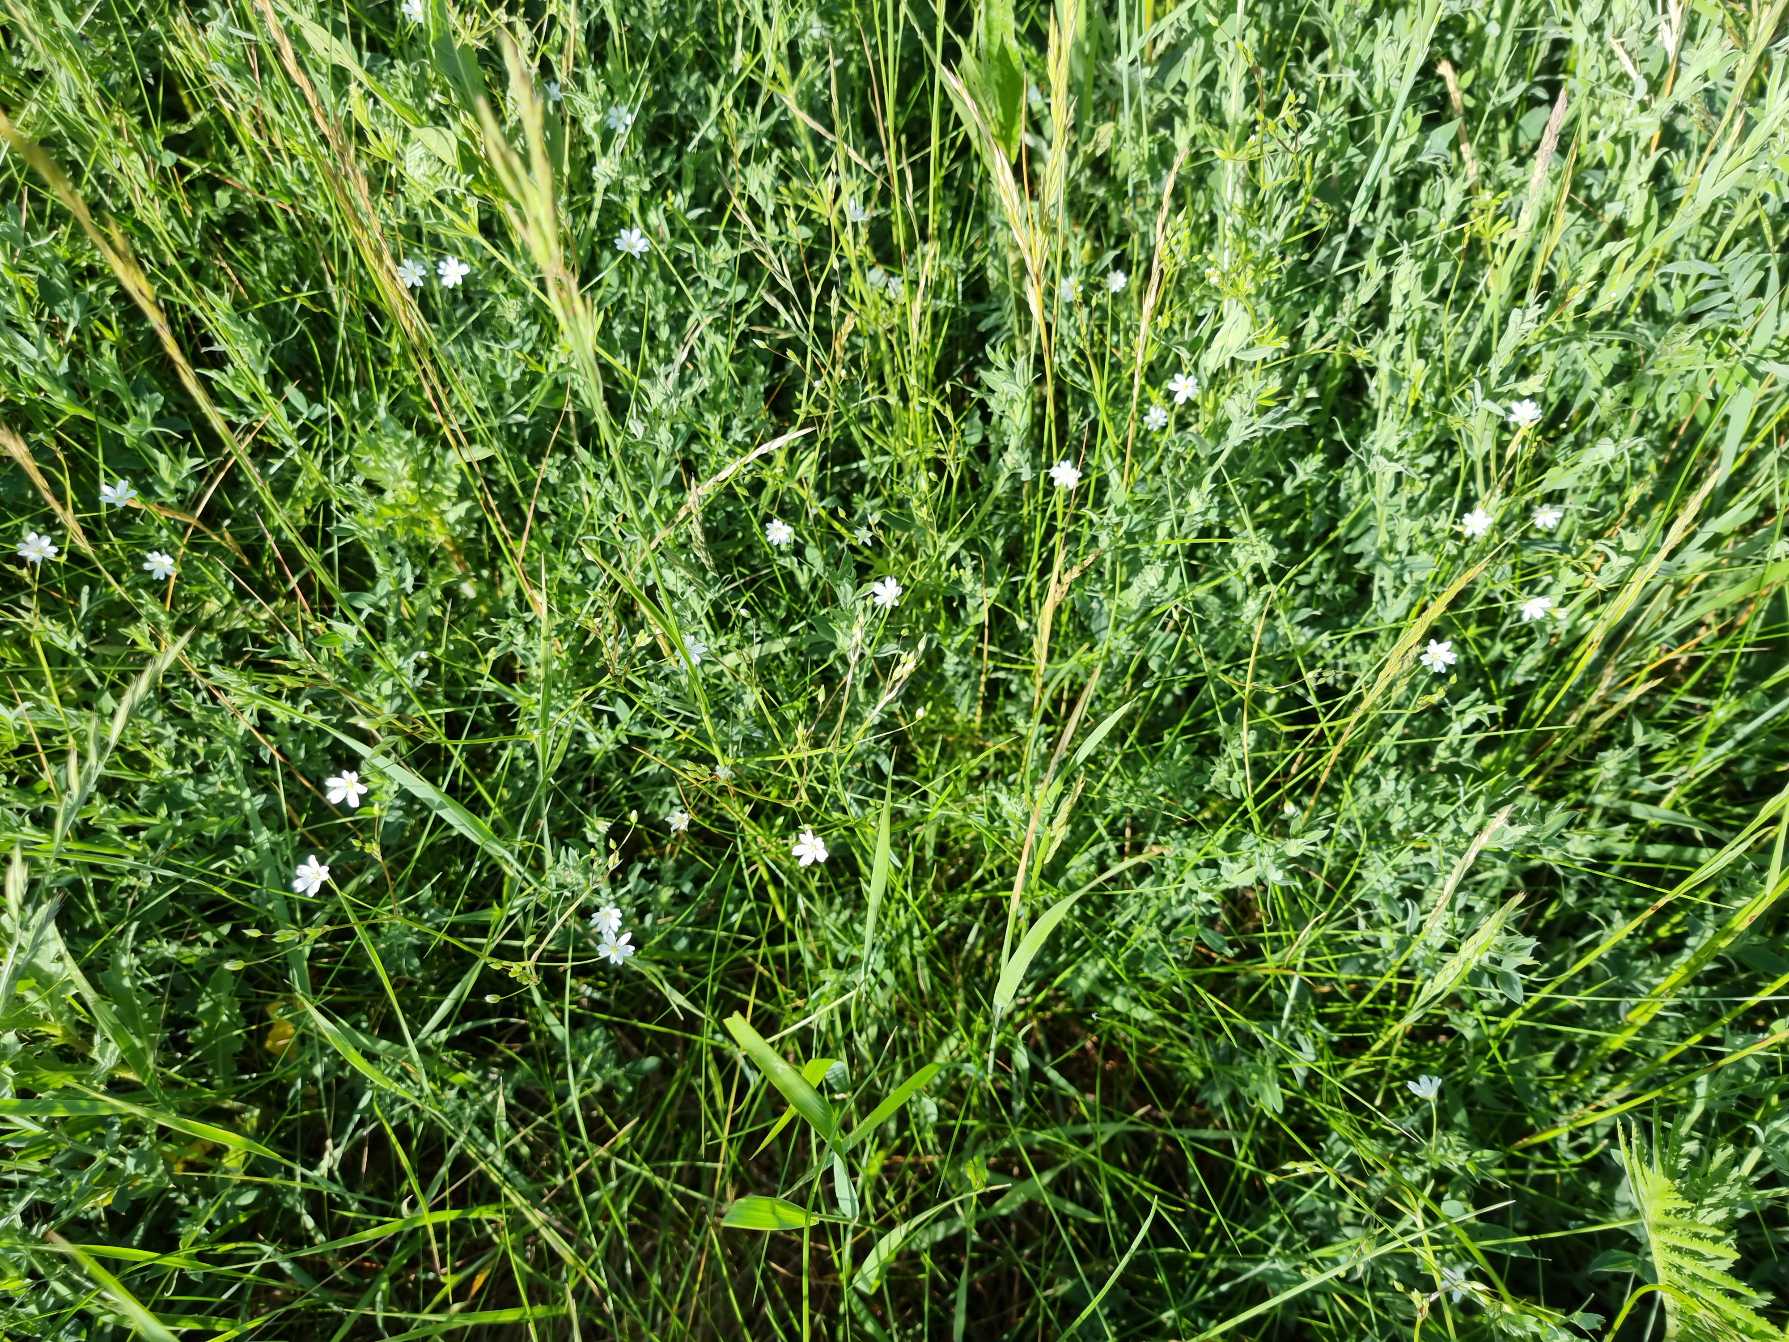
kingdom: Plantae
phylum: Tracheophyta
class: Magnoliopsida
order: Caryophyllales
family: Caryophyllaceae
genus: Stellaria
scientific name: Stellaria graminea
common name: Græsbladet fladstjerne
